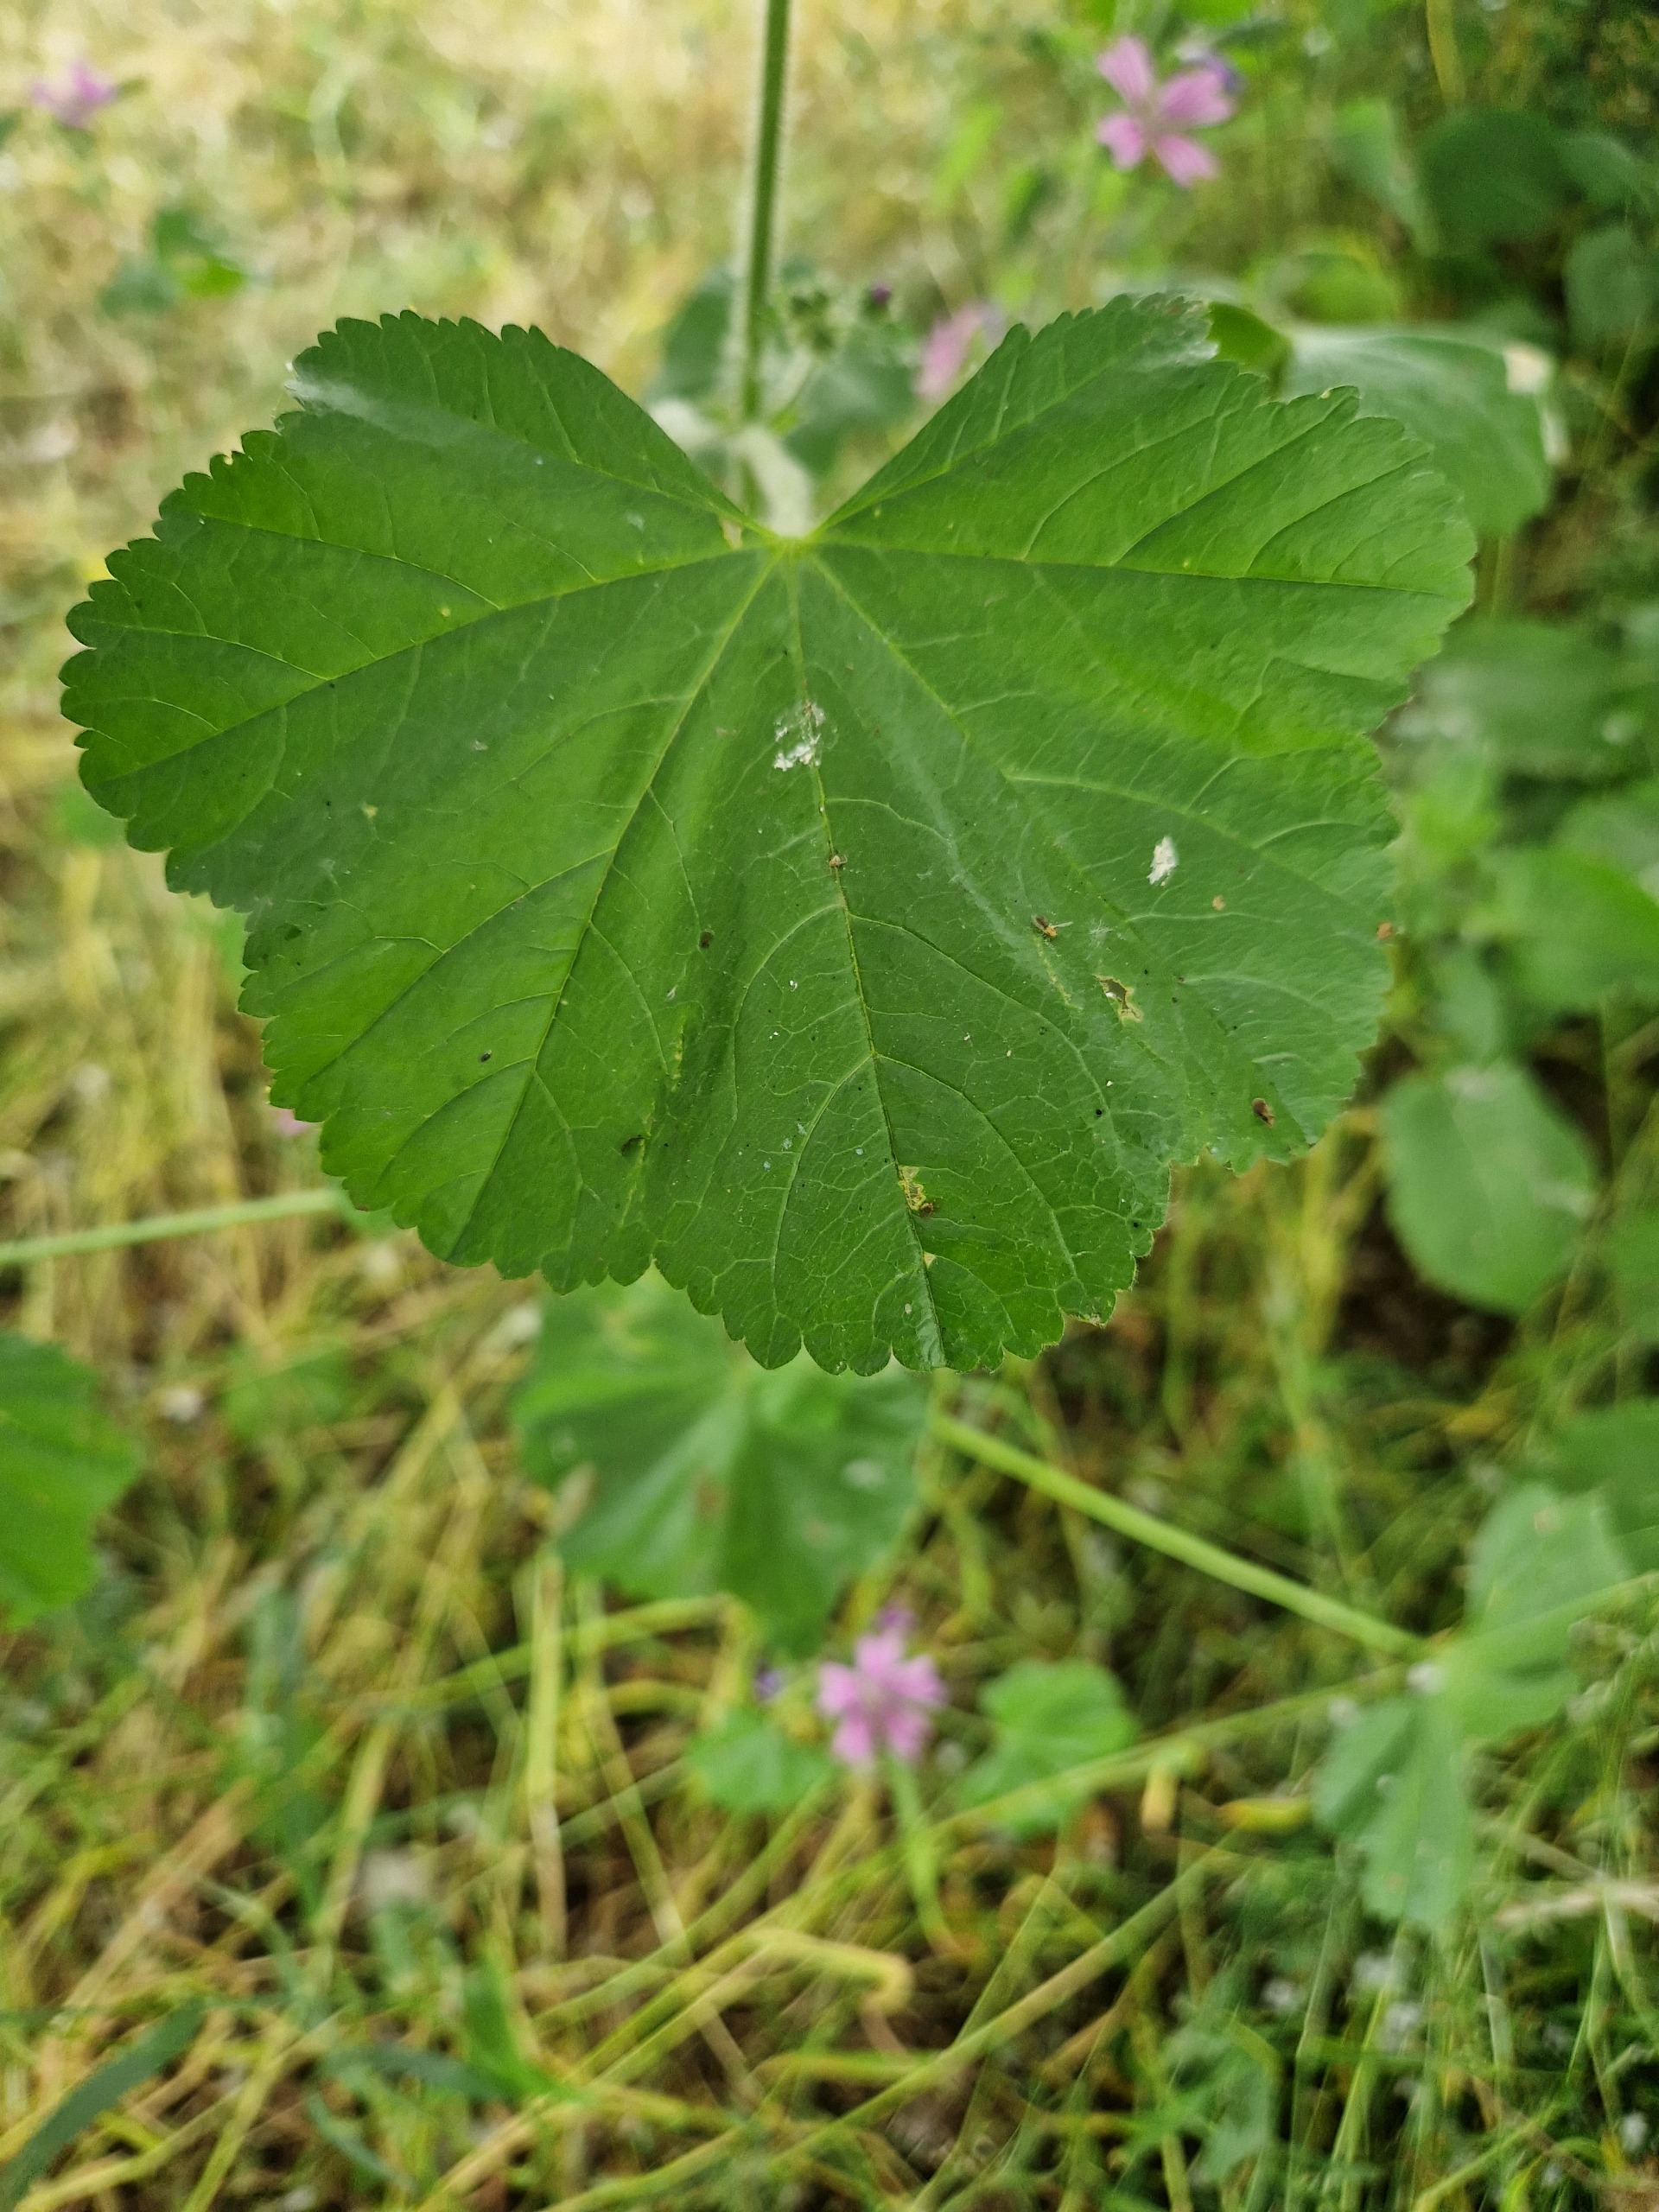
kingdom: Plantae
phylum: Tracheophyta
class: Magnoliopsida
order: Malvales
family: Malvaceae
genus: Malva
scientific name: Malva sylvestris
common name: Almindelig katost
